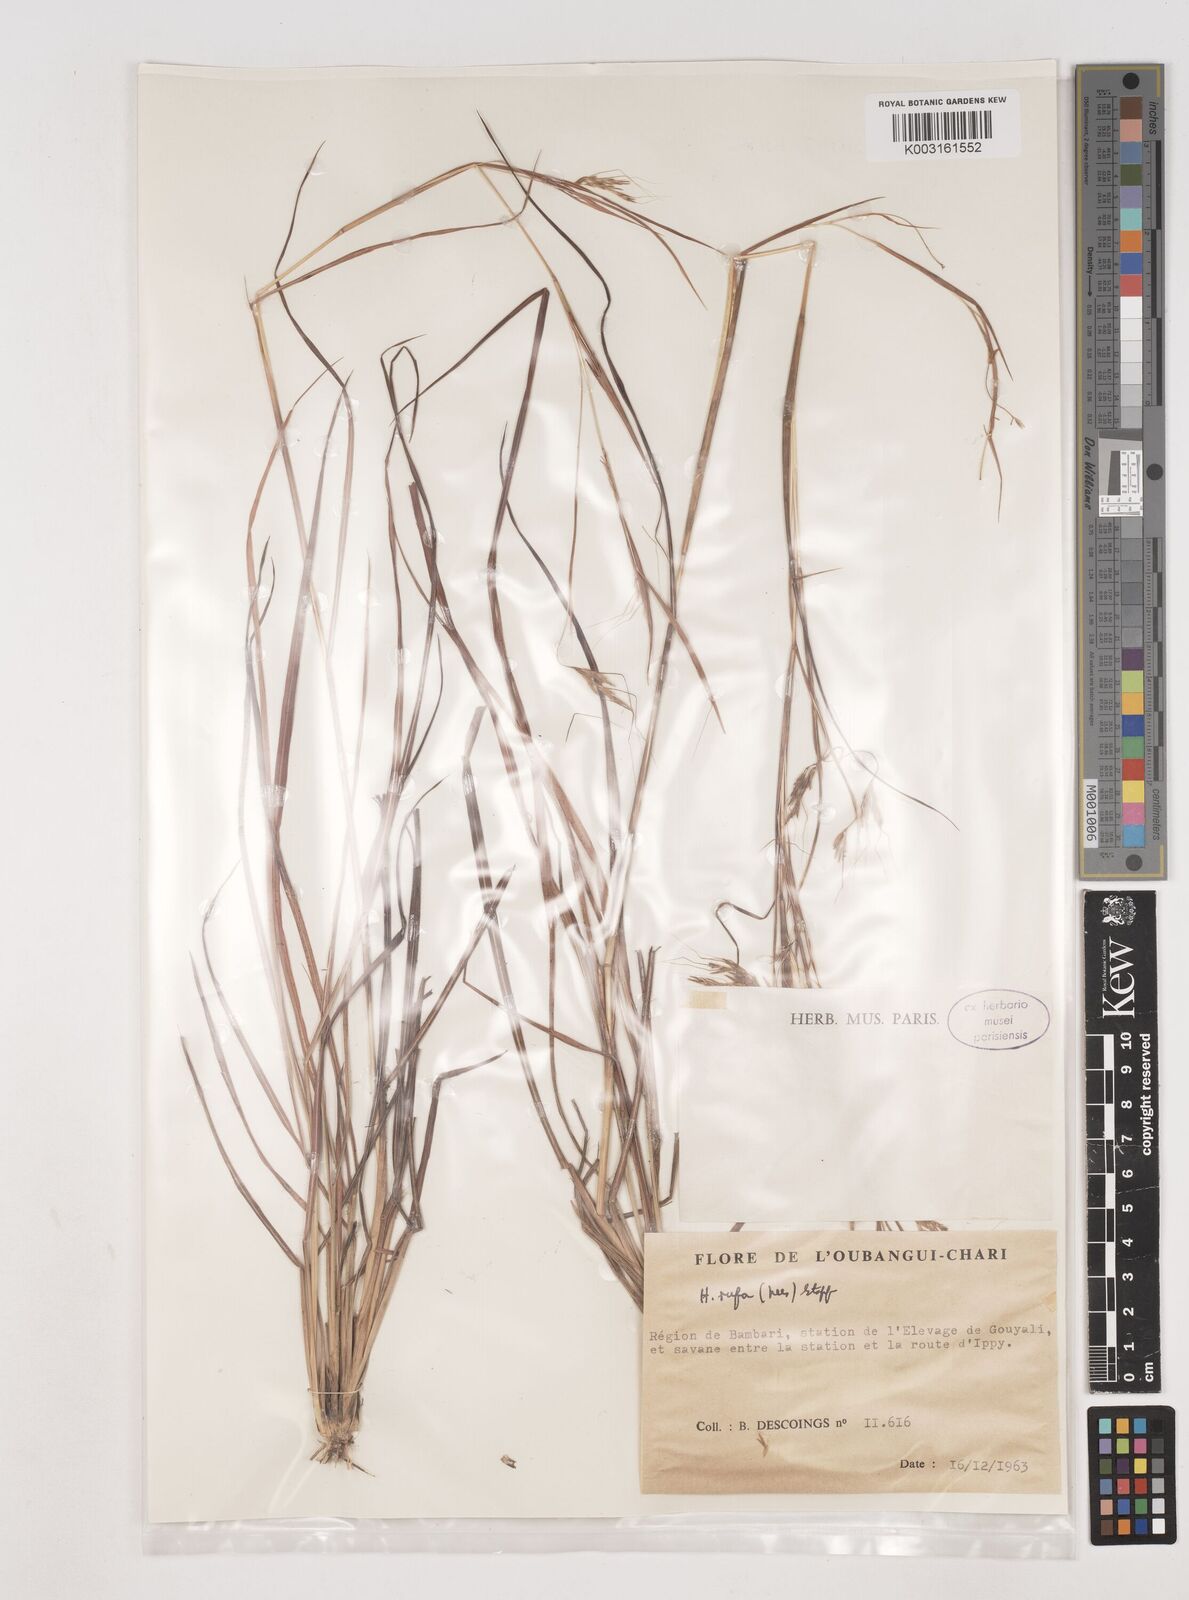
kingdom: Plantae
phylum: Tracheophyta
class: Liliopsida
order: Poales
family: Poaceae
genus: Hyparrhenia
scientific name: Hyparrhenia rufa
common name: Jaraguagrass
